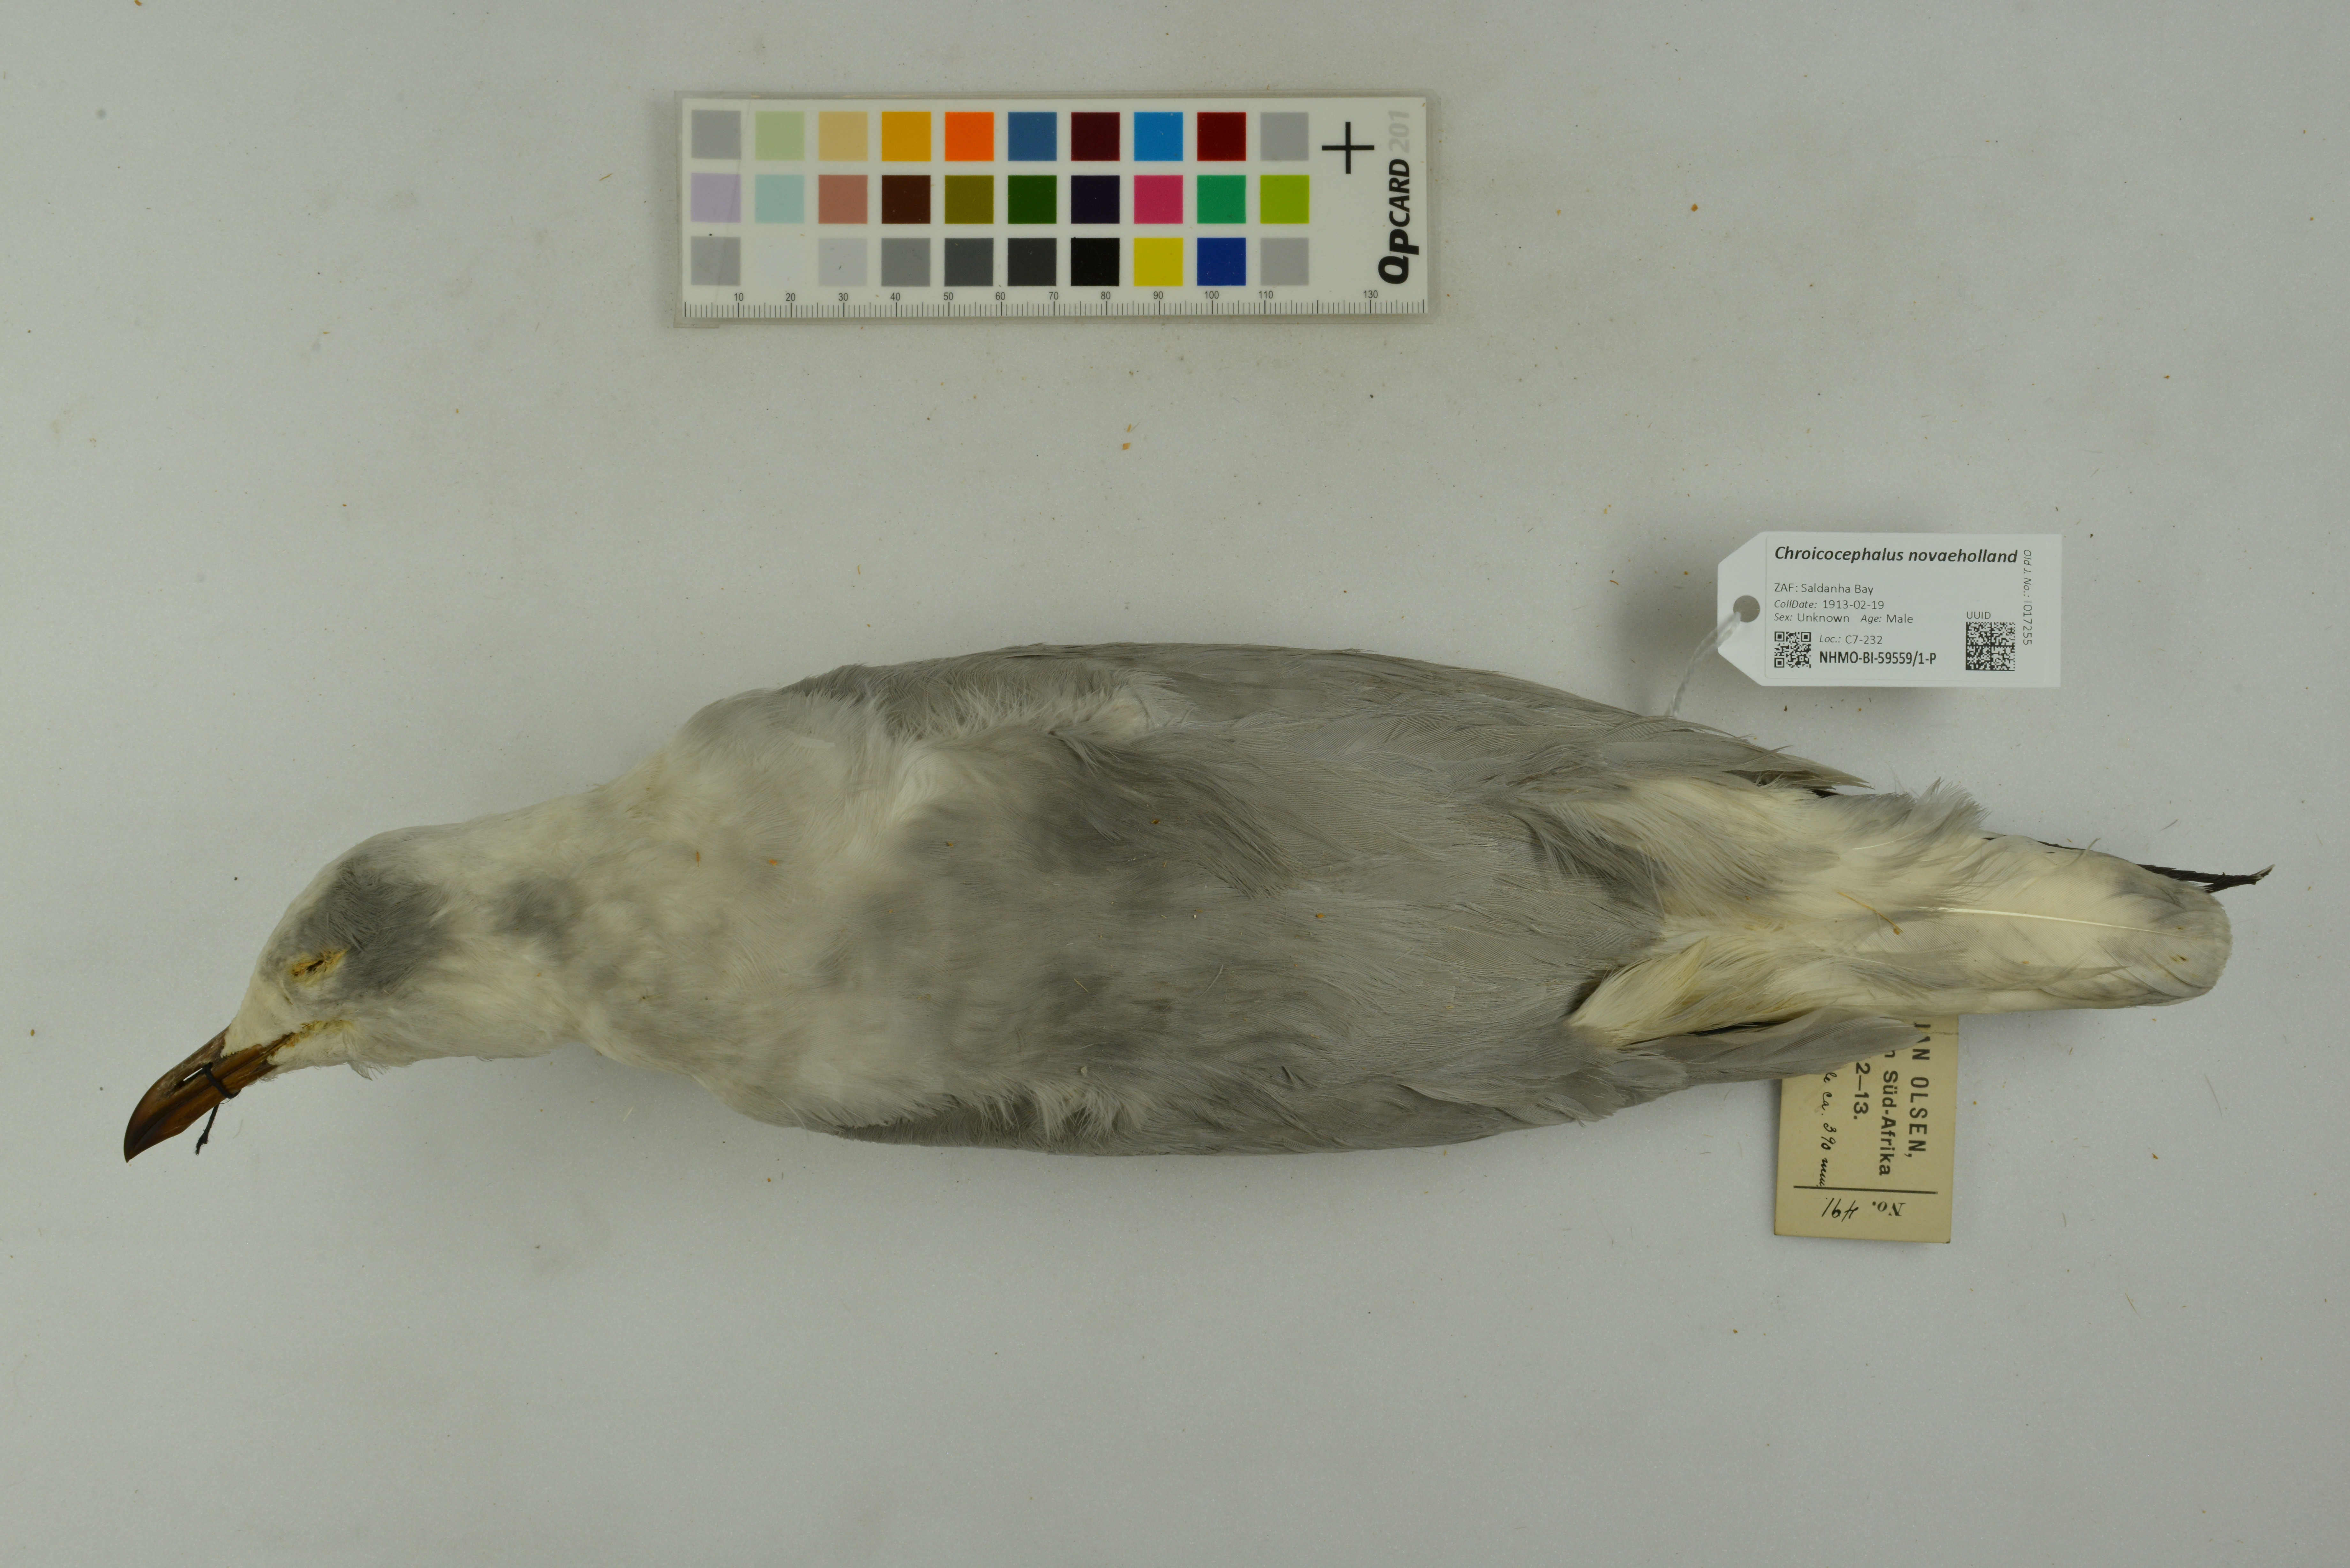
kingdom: Animalia
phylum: Chordata
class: Aves
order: Charadriiformes
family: Laridae
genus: Chroicocephalus
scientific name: Chroicocephalus novaehollandiae
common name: Silver gull
